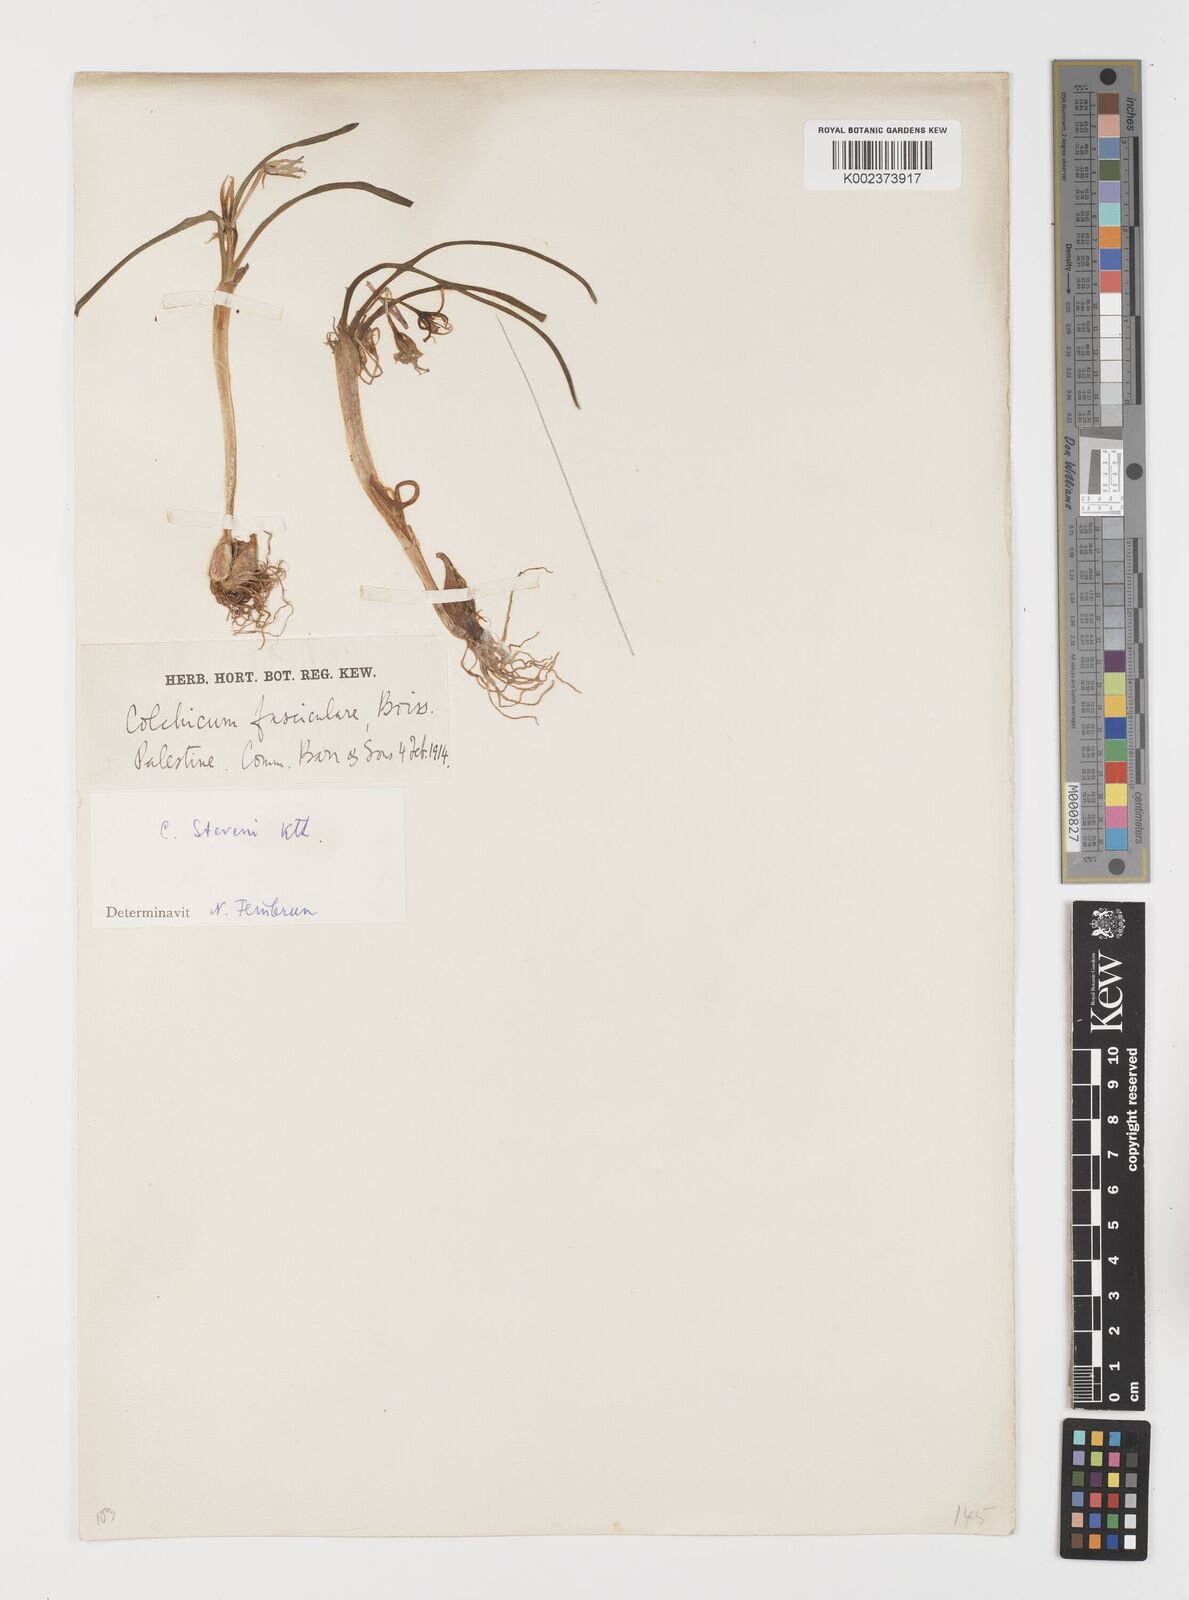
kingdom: Plantae
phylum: Tracheophyta
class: Liliopsida
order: Liliales
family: Colchicaceae
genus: Colchicum
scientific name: Colchicum stevenii
